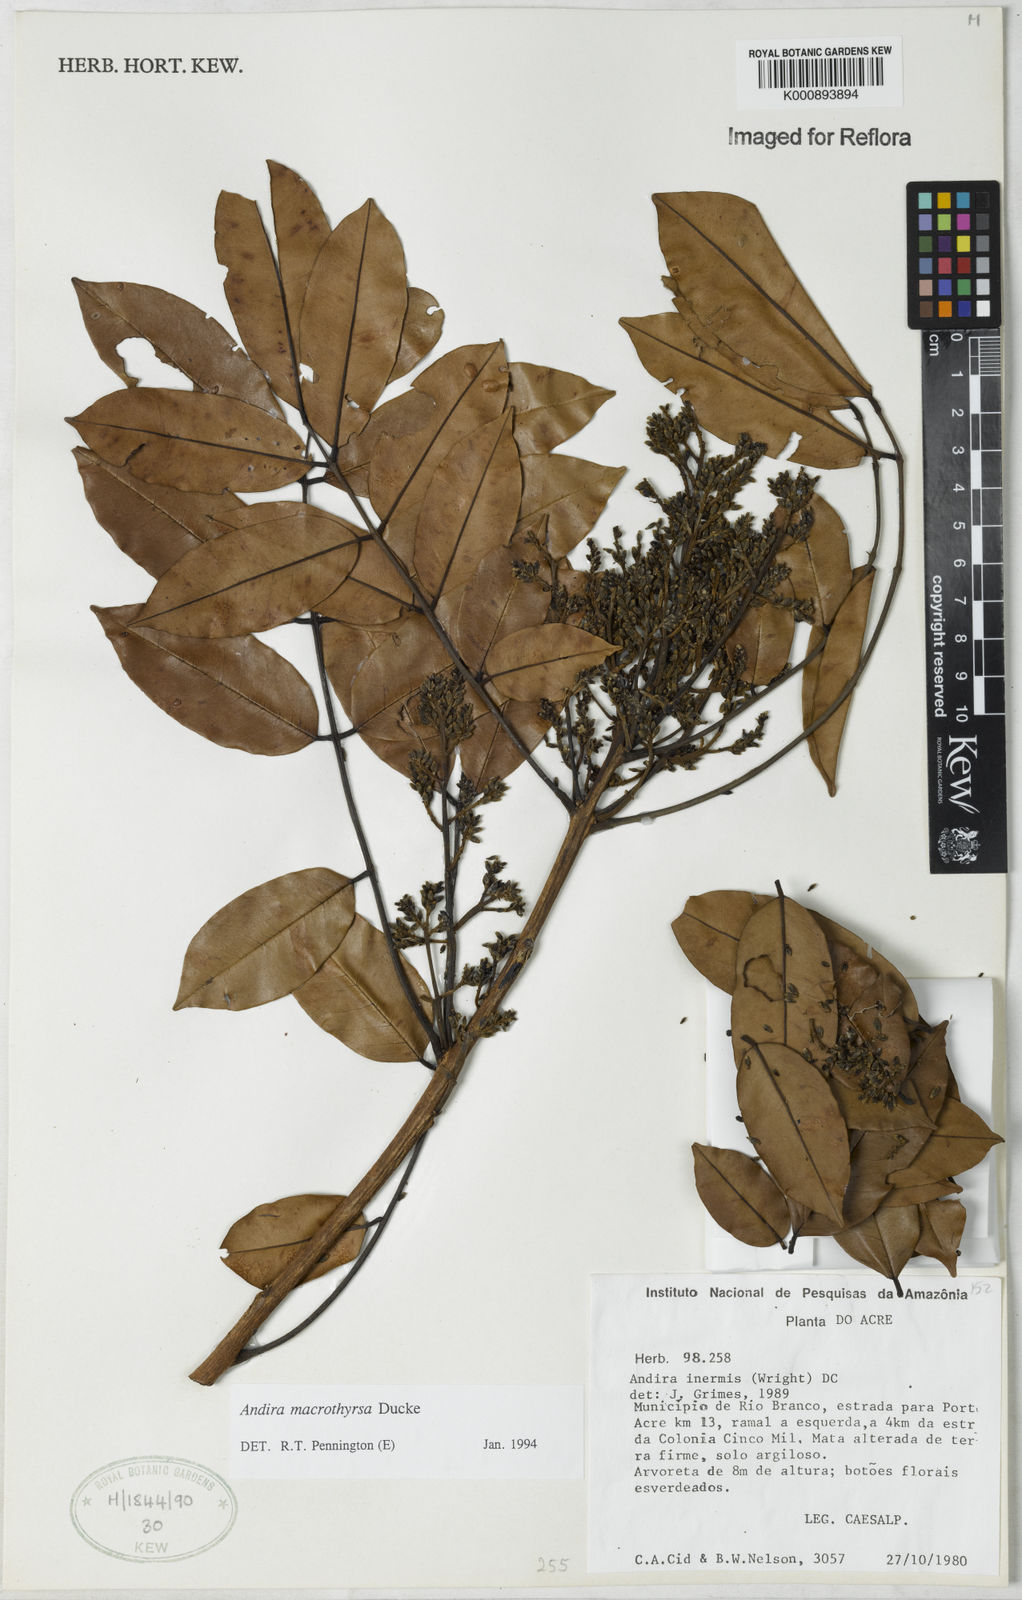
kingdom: Plantae
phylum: Tracheophyta
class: Magnoliopsida
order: Fabales
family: Fabaceae
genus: Andira
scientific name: Andira macrothyrsa
